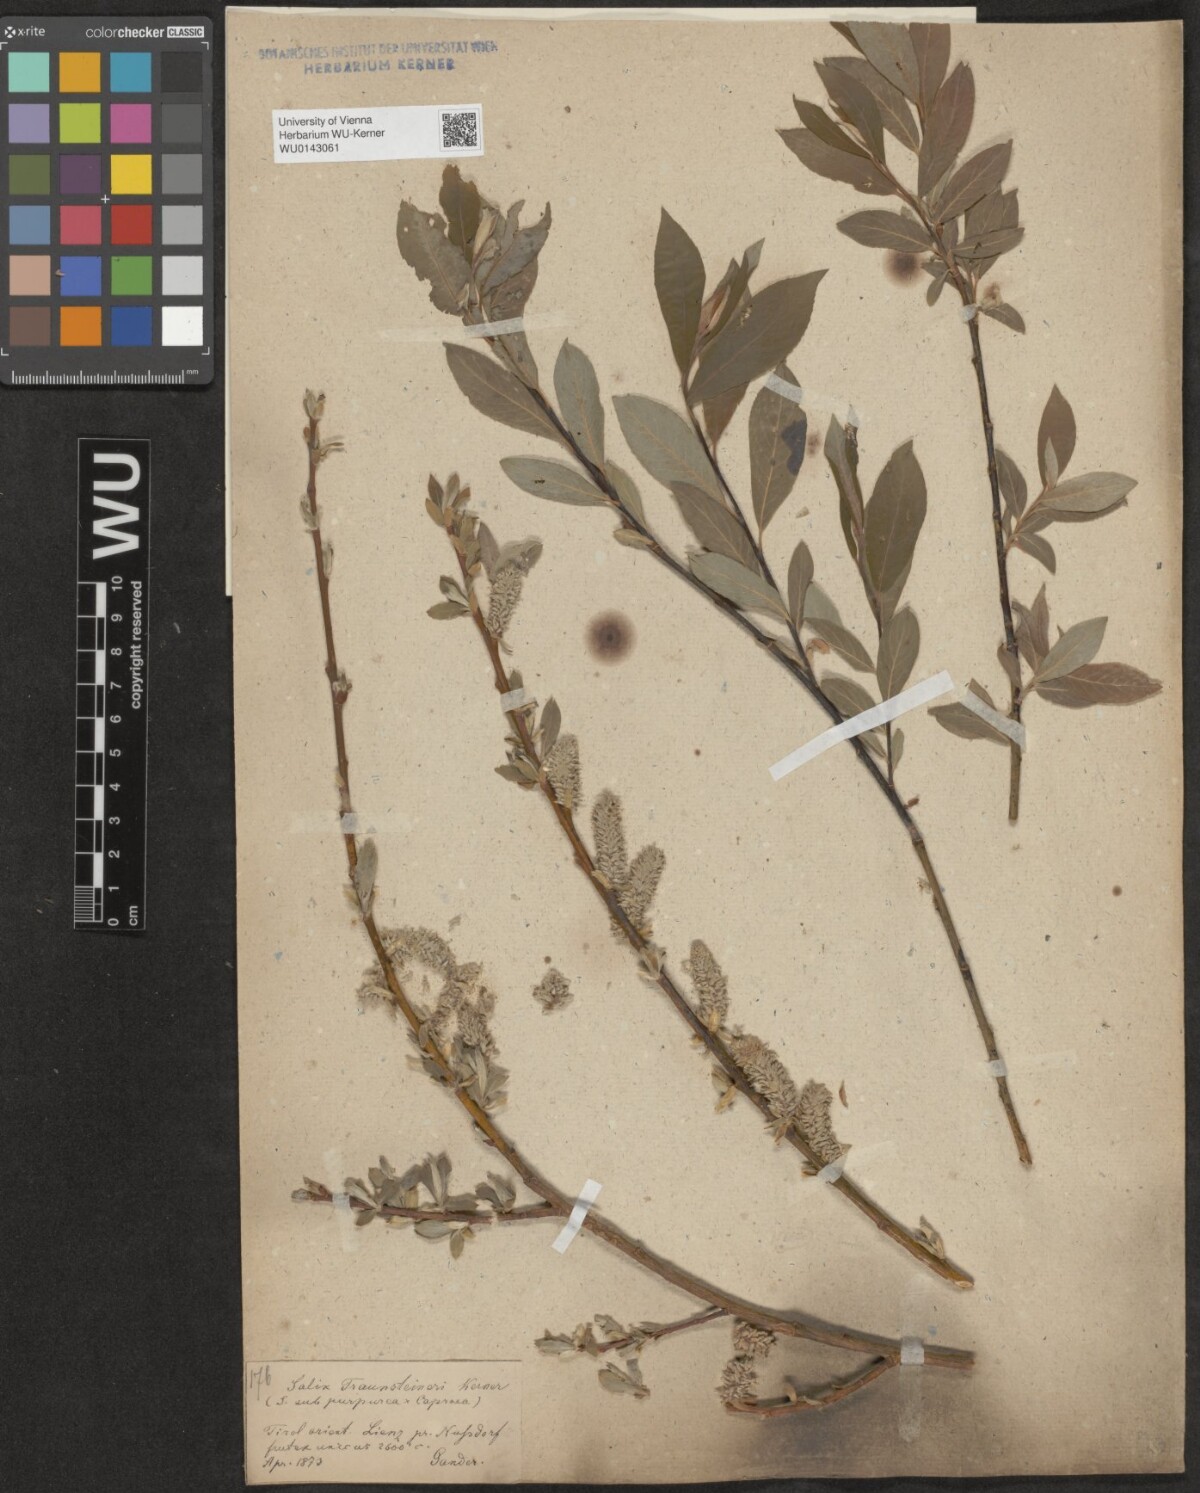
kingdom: Plantae
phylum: Tracheophyta
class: Magnoliopsida
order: Malpighiales
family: Salicaceae
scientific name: Salicaceae
